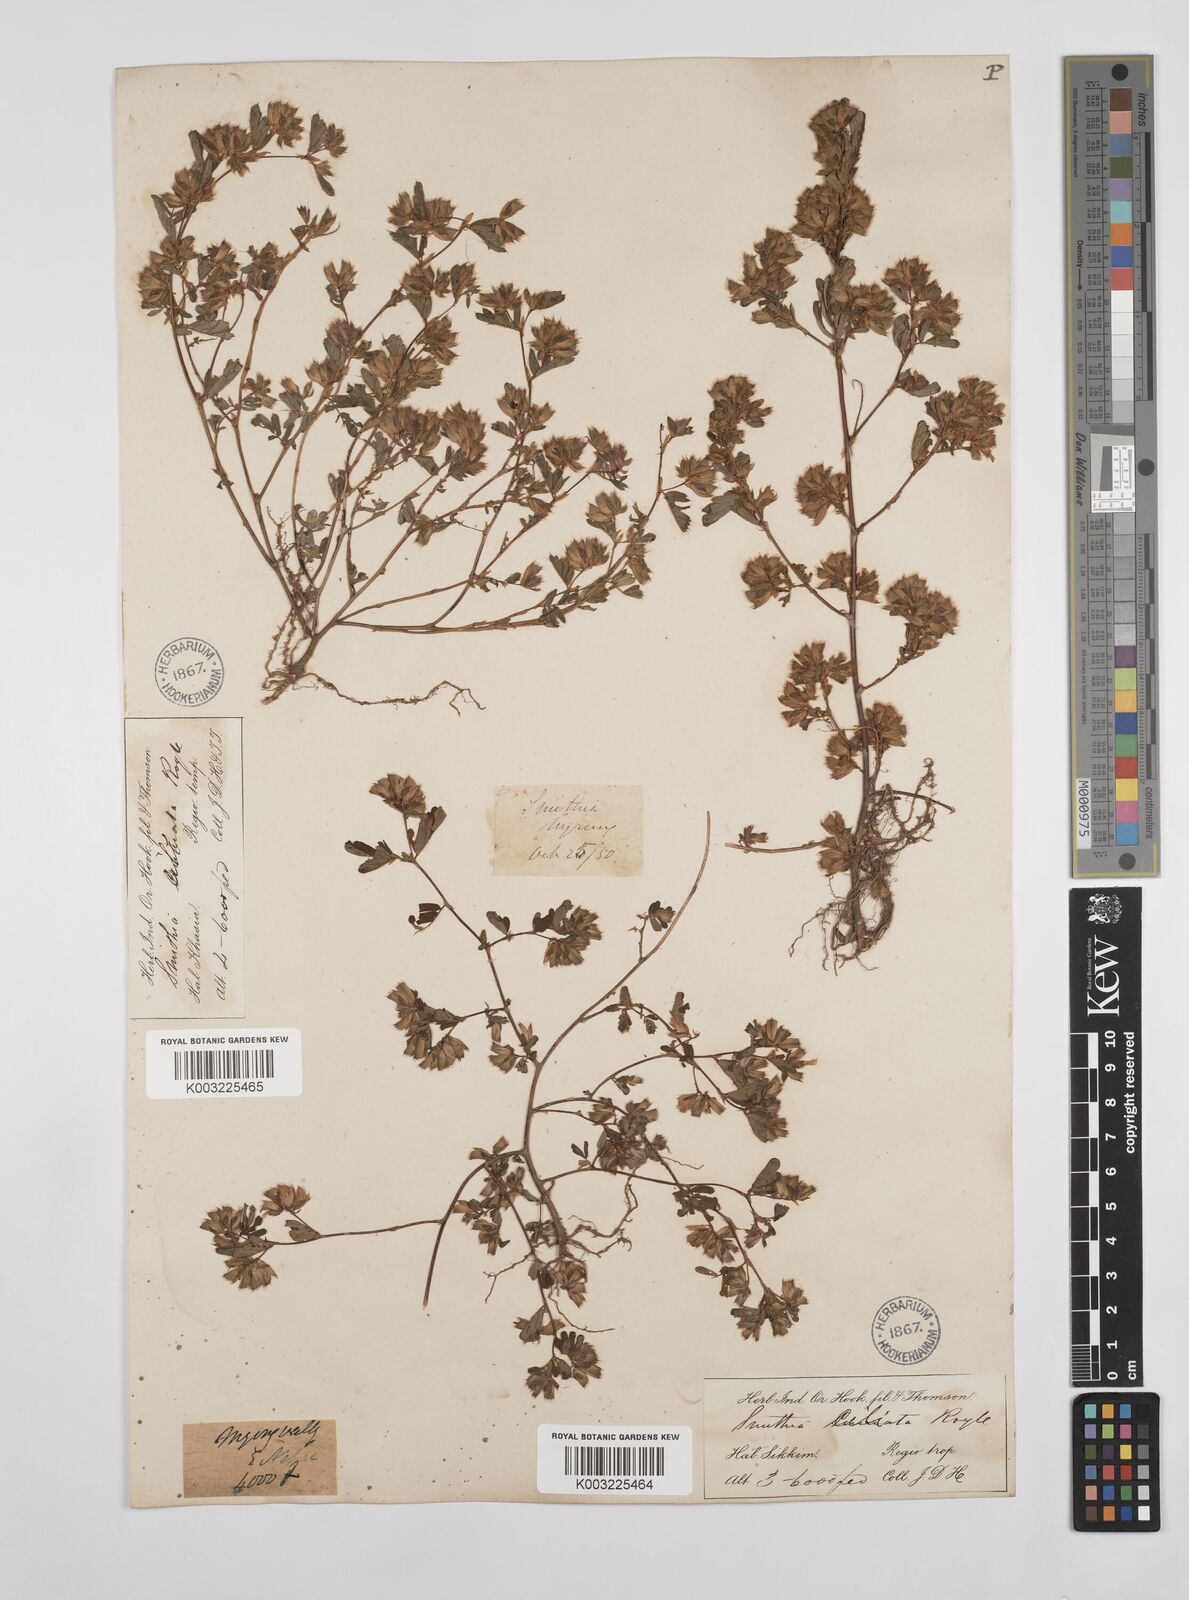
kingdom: Plantae
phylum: Tracheophyta
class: Magnoliopsida
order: Fabales
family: Fabaceae
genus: Smithia
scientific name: Smithia ciliata
